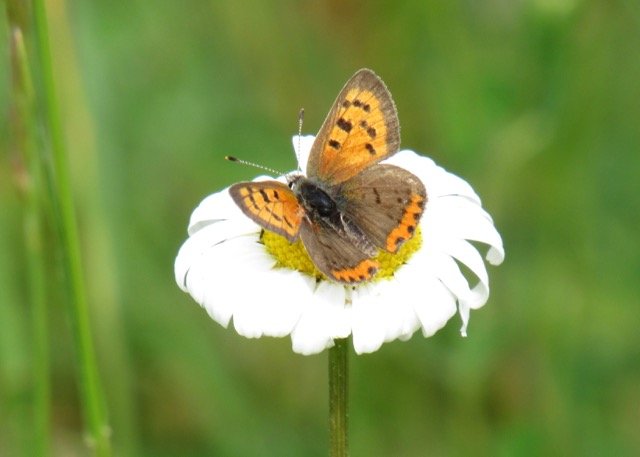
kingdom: Animalia
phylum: Arthropoda
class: Insecta
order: Lepidoptera
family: Lycaenidae
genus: Lycaena
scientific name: Lycaena phlaeas
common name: American Copper
